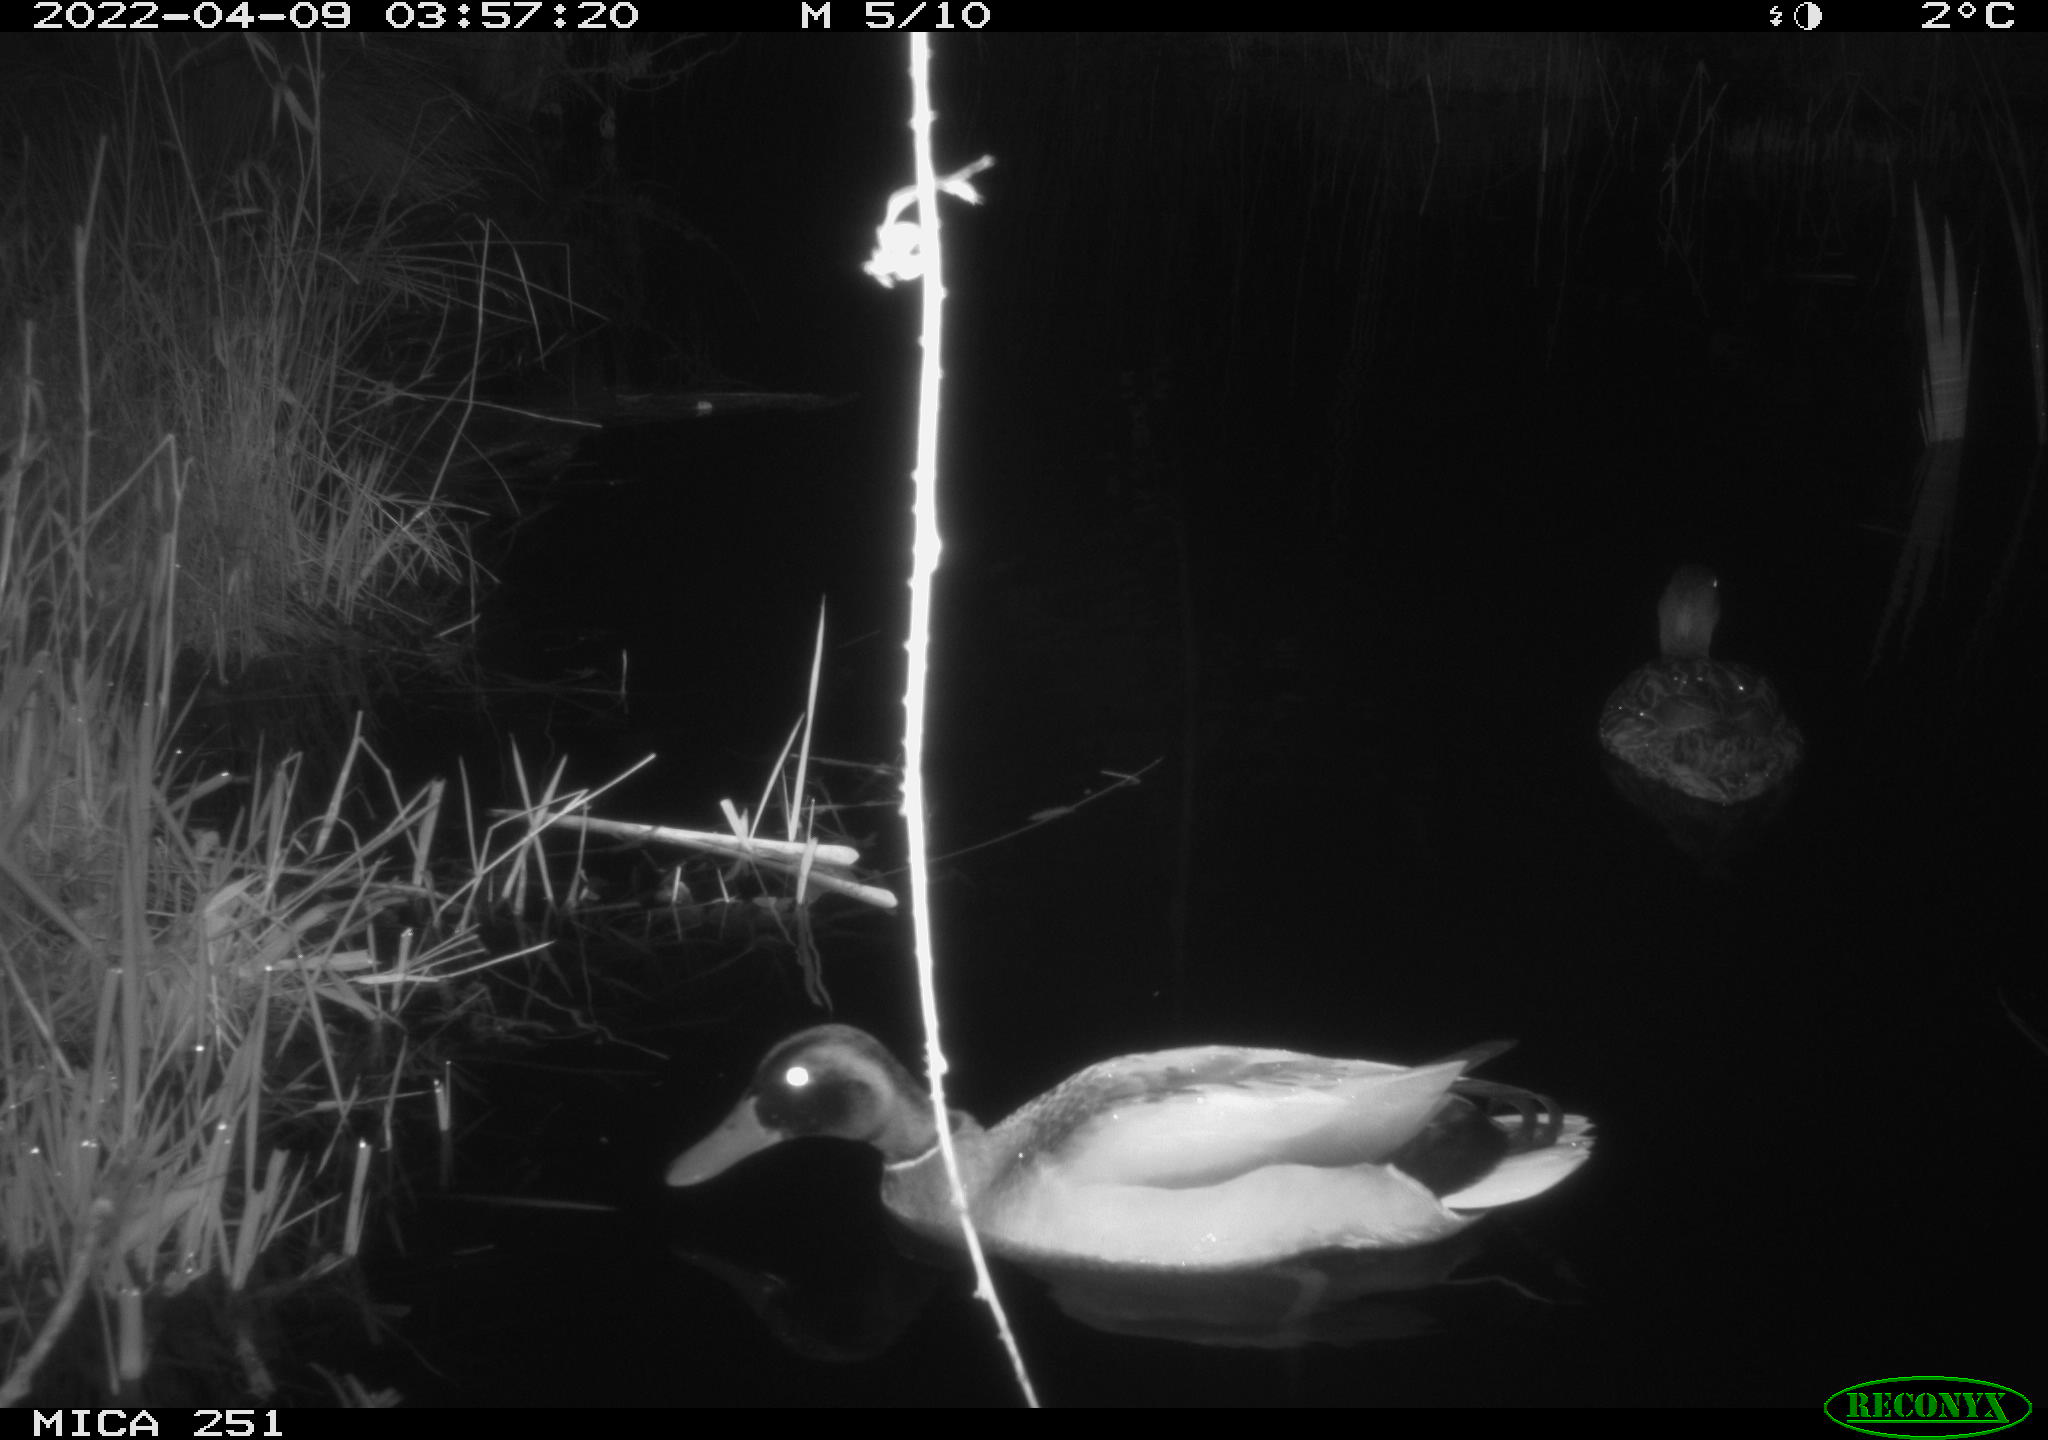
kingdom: Animalia
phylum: Chordata
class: Aves
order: Anseriformes
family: Anatidae
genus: Anas
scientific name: Anas platyrhynchos
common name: Mallard
